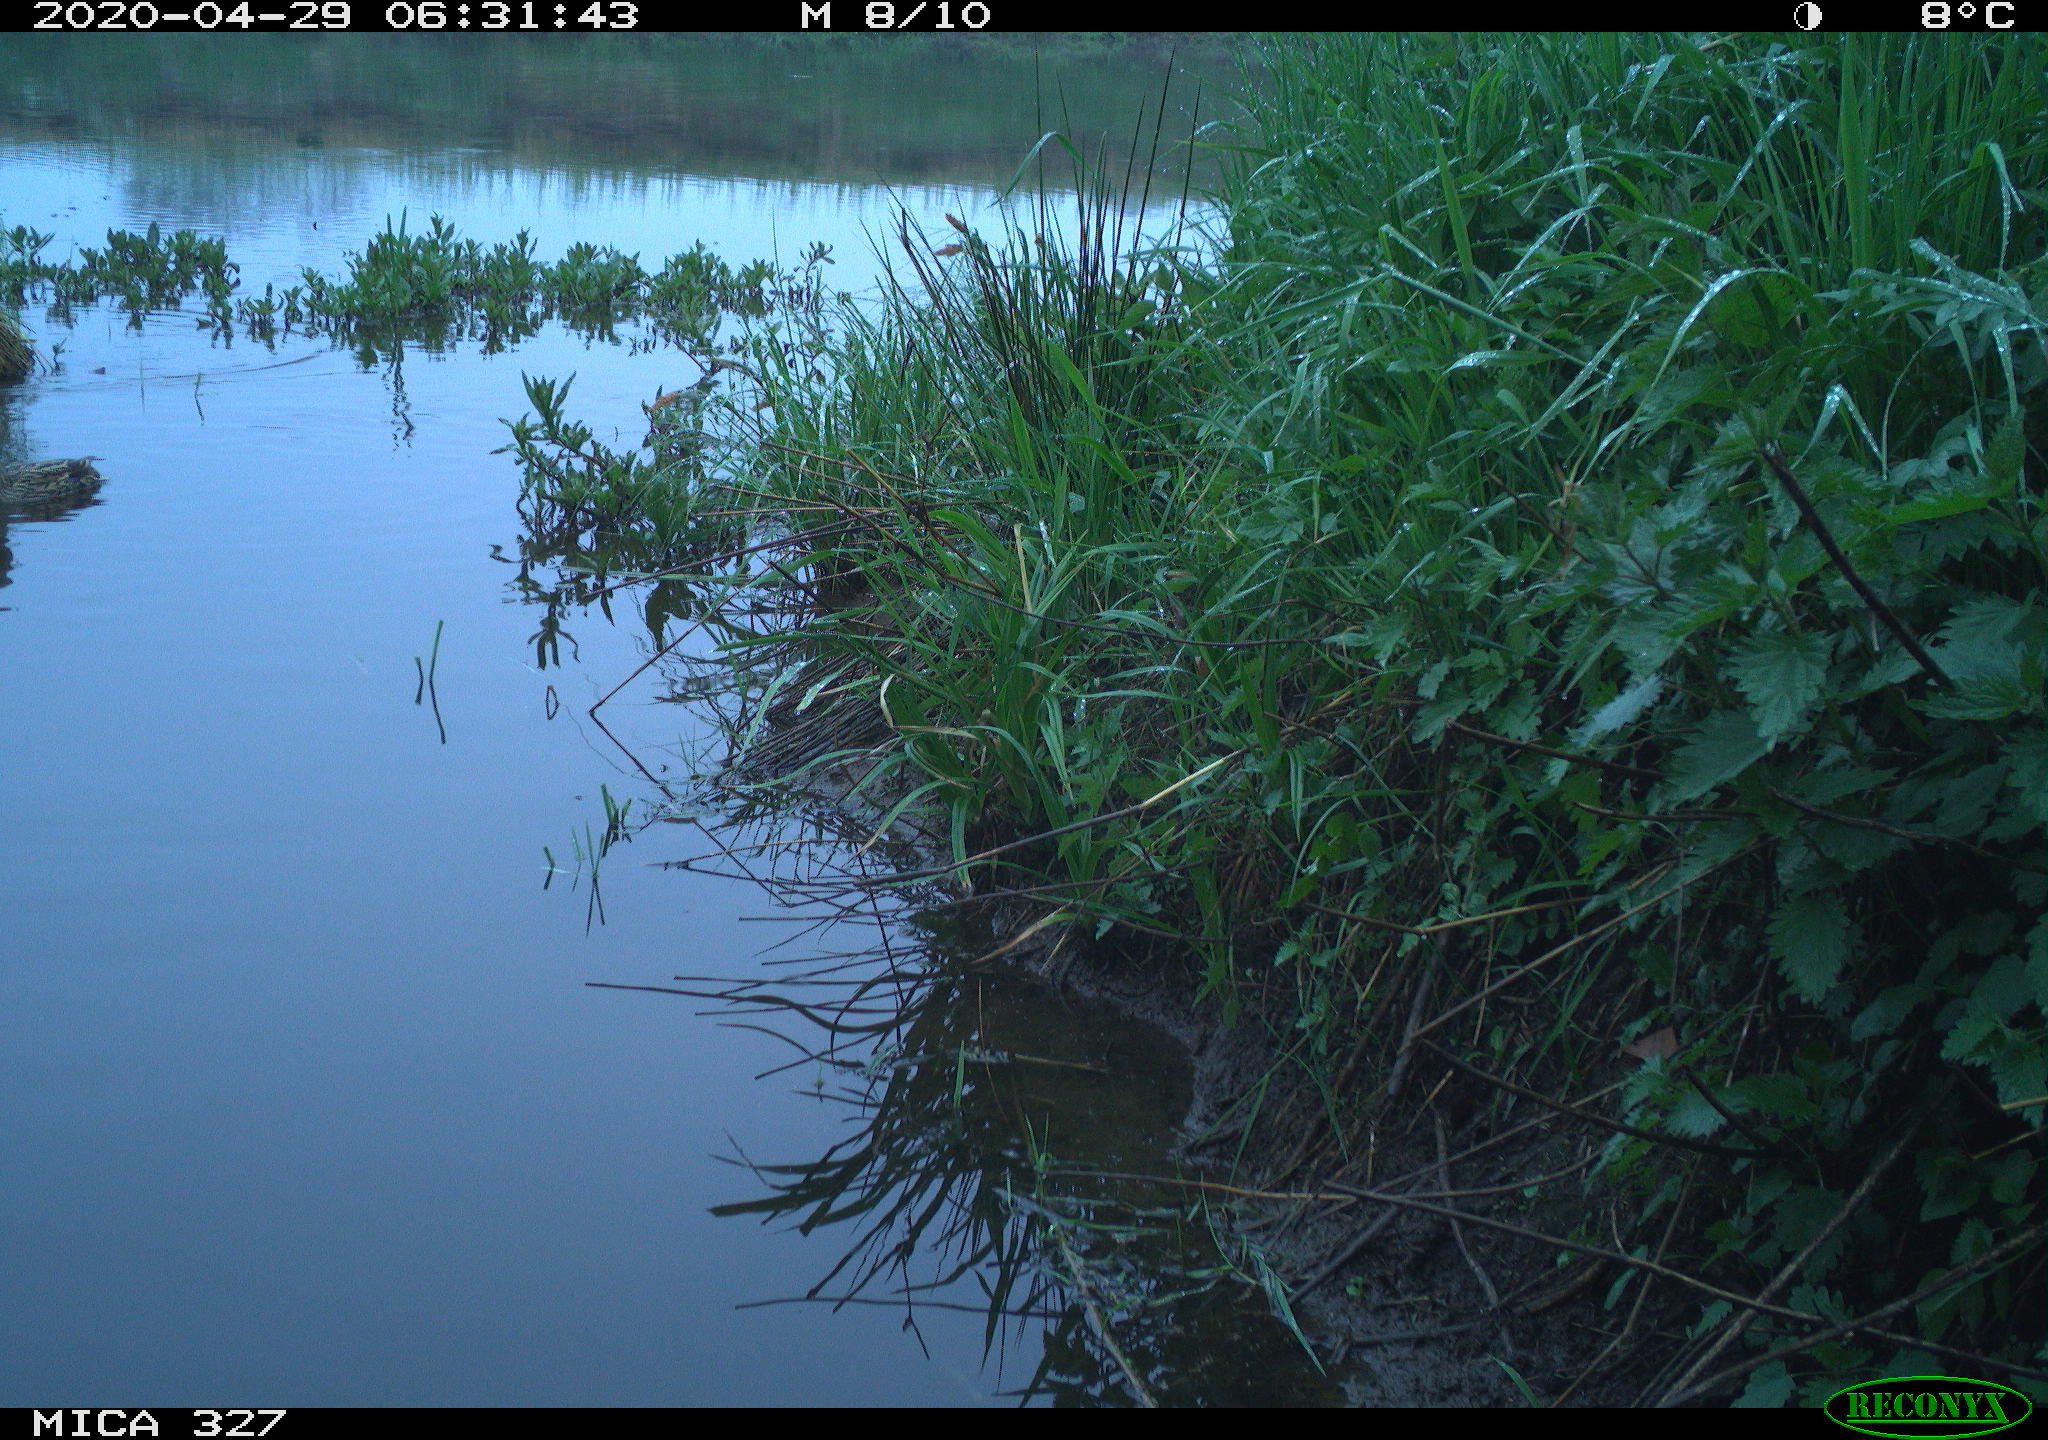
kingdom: Animalia
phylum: Chordata
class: Aves
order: Anseriformes
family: Anatidae
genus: Anas
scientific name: Anas platyrhynchos
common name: Mallard
